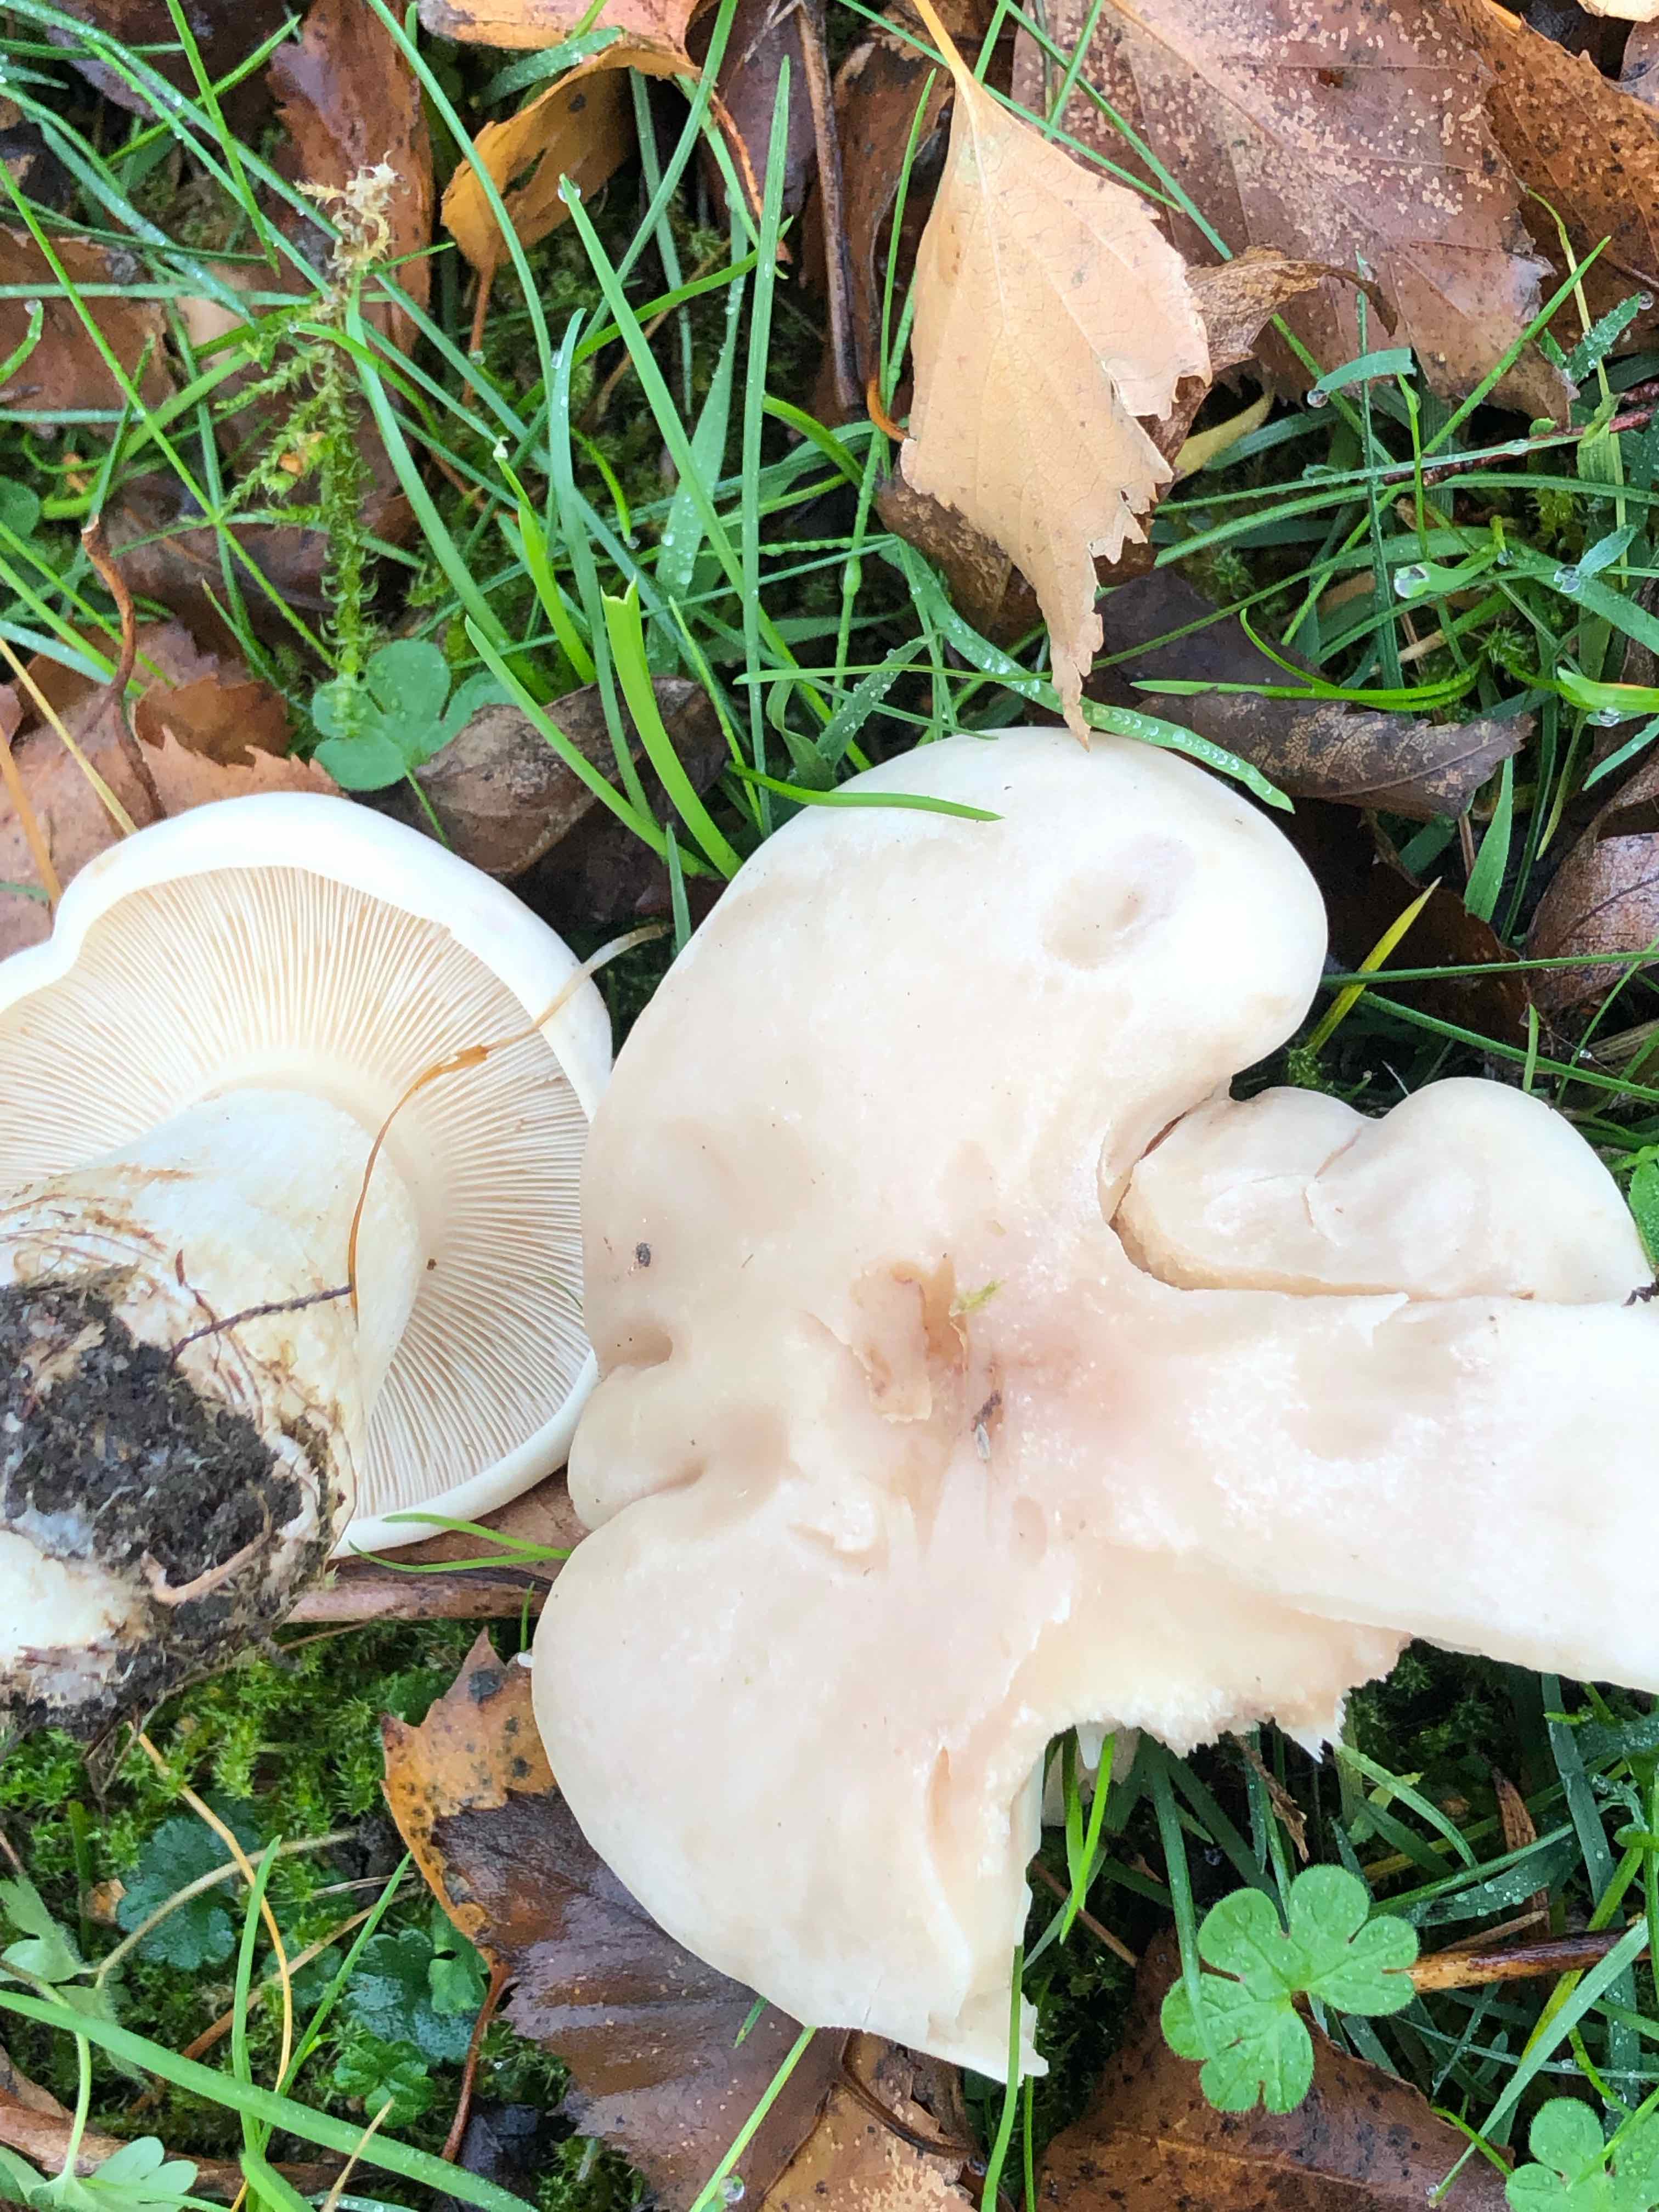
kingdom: Fungi
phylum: Basidiomycota
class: Agaricomycetes
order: Agaricales
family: Lyophyllaceae
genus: Calocybe
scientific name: Calocybe gambosa
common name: vårmusseron
